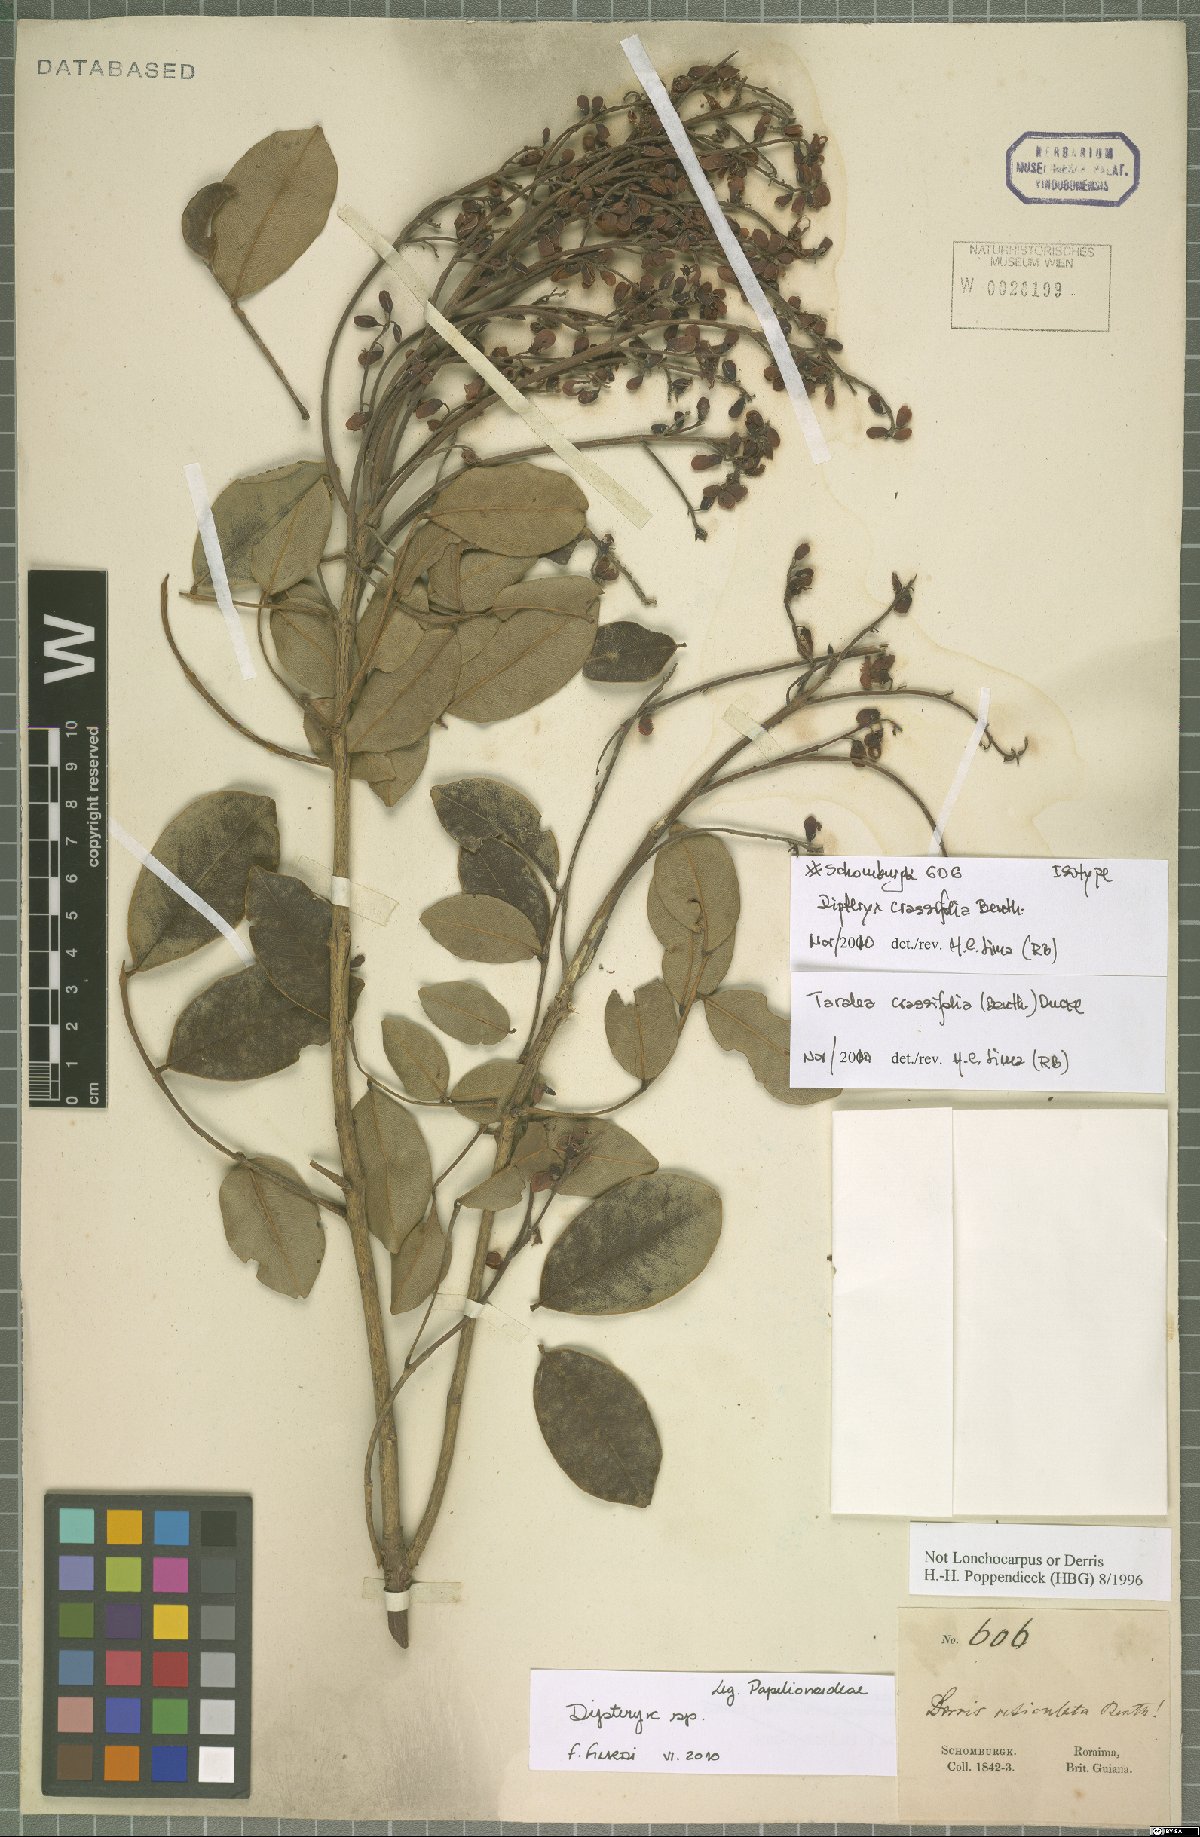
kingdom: Plantae
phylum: Tracheophyta
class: Magnoliopsida
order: Fabales
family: Fabaceae
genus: Taralea
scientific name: Taralea crassifolia
